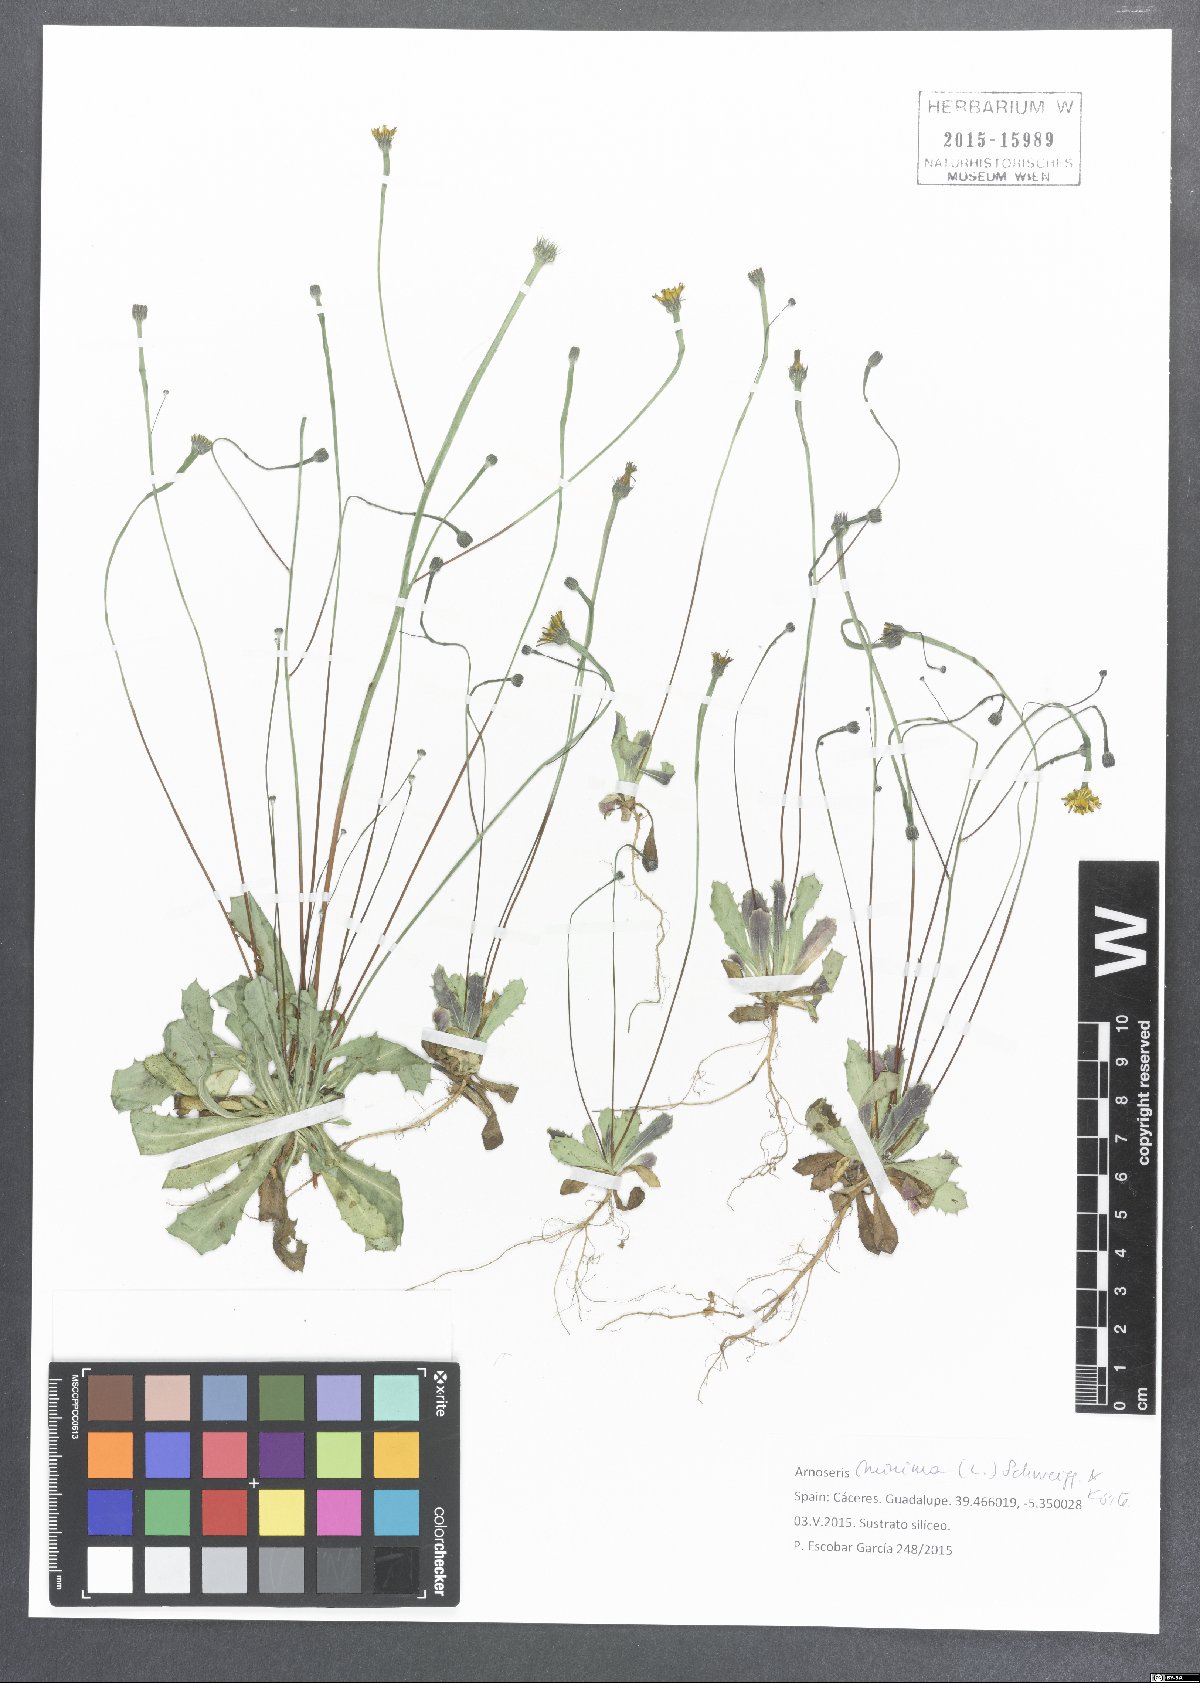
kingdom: Plantae
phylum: Tracheophyta
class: Magnoliopsida
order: Asterales
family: Asteraceae
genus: Arnoseris
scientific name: Arnoseris minima
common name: Lamb's succory
